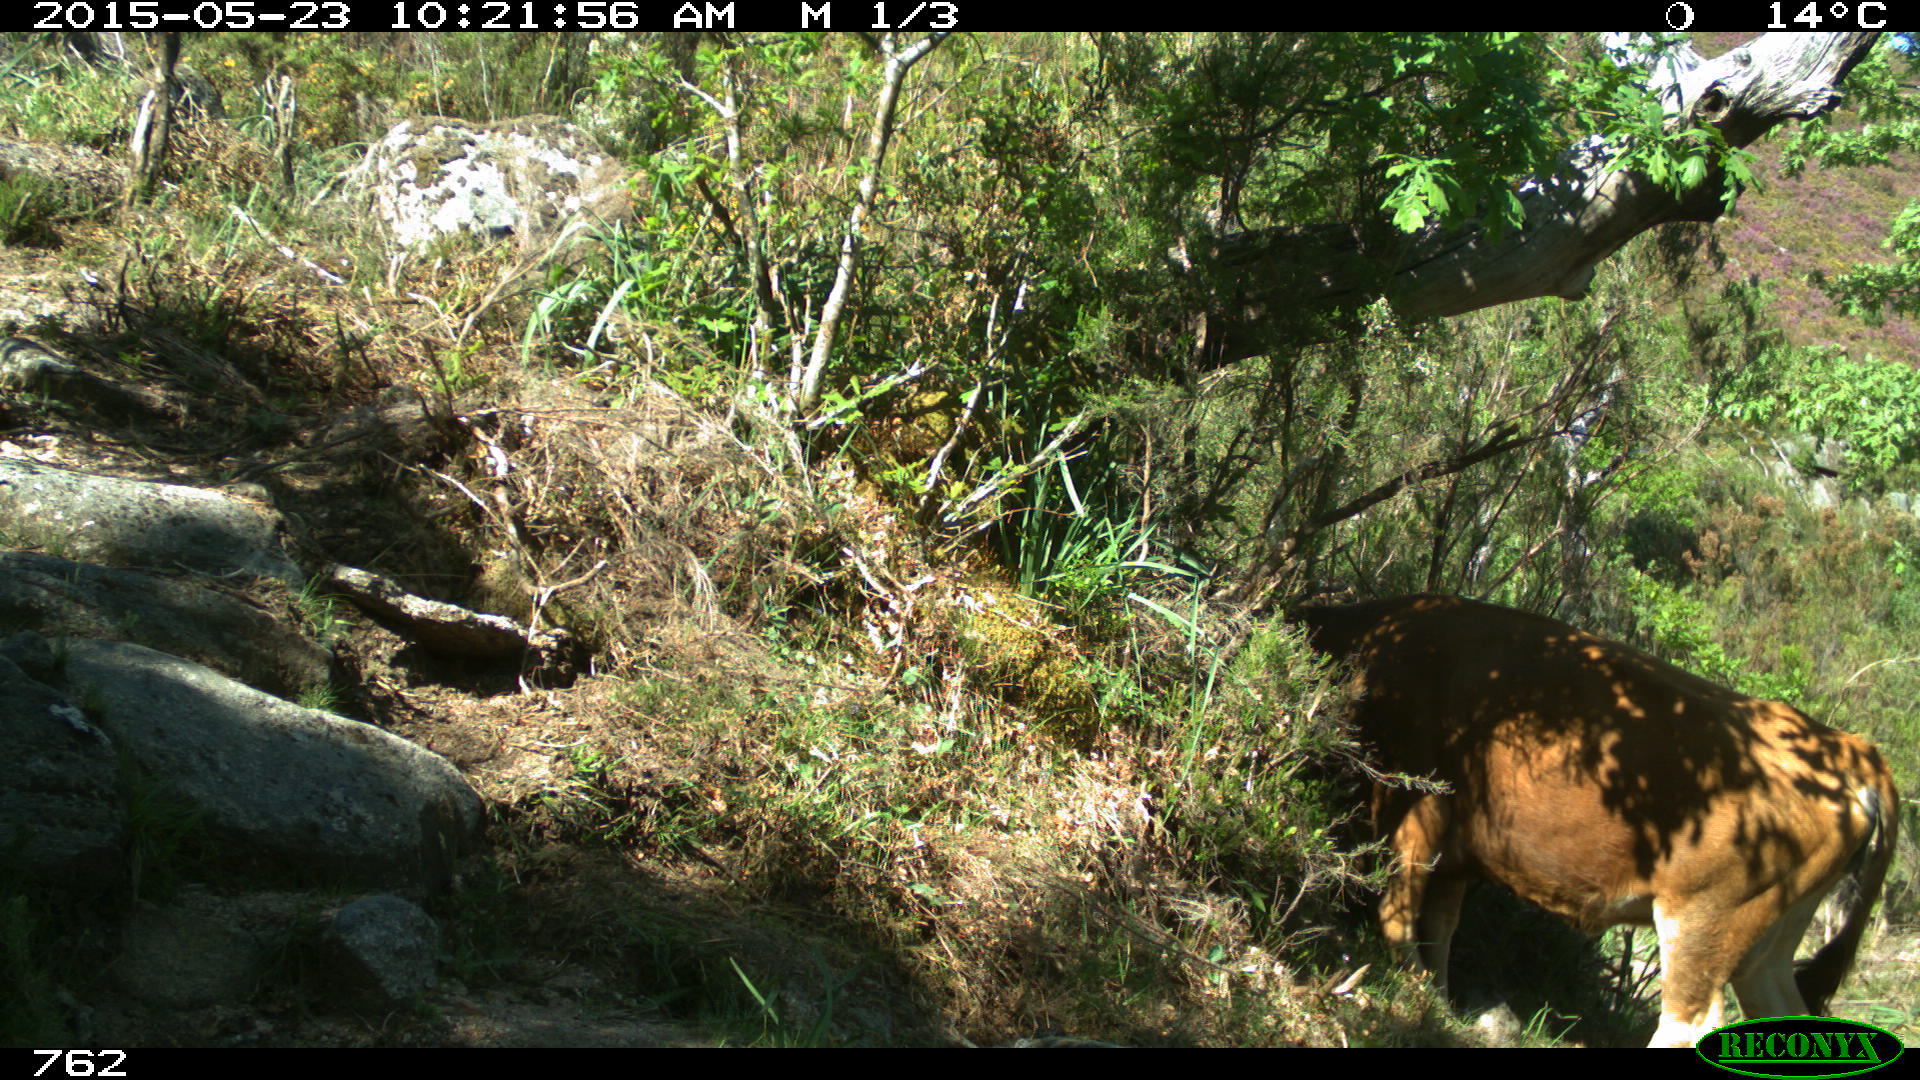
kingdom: Animalia
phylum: Chordata
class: Mammalia
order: Artiodactyla
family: Bovidae
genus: Bos
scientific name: Bos taurus
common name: Domesticated cattle
